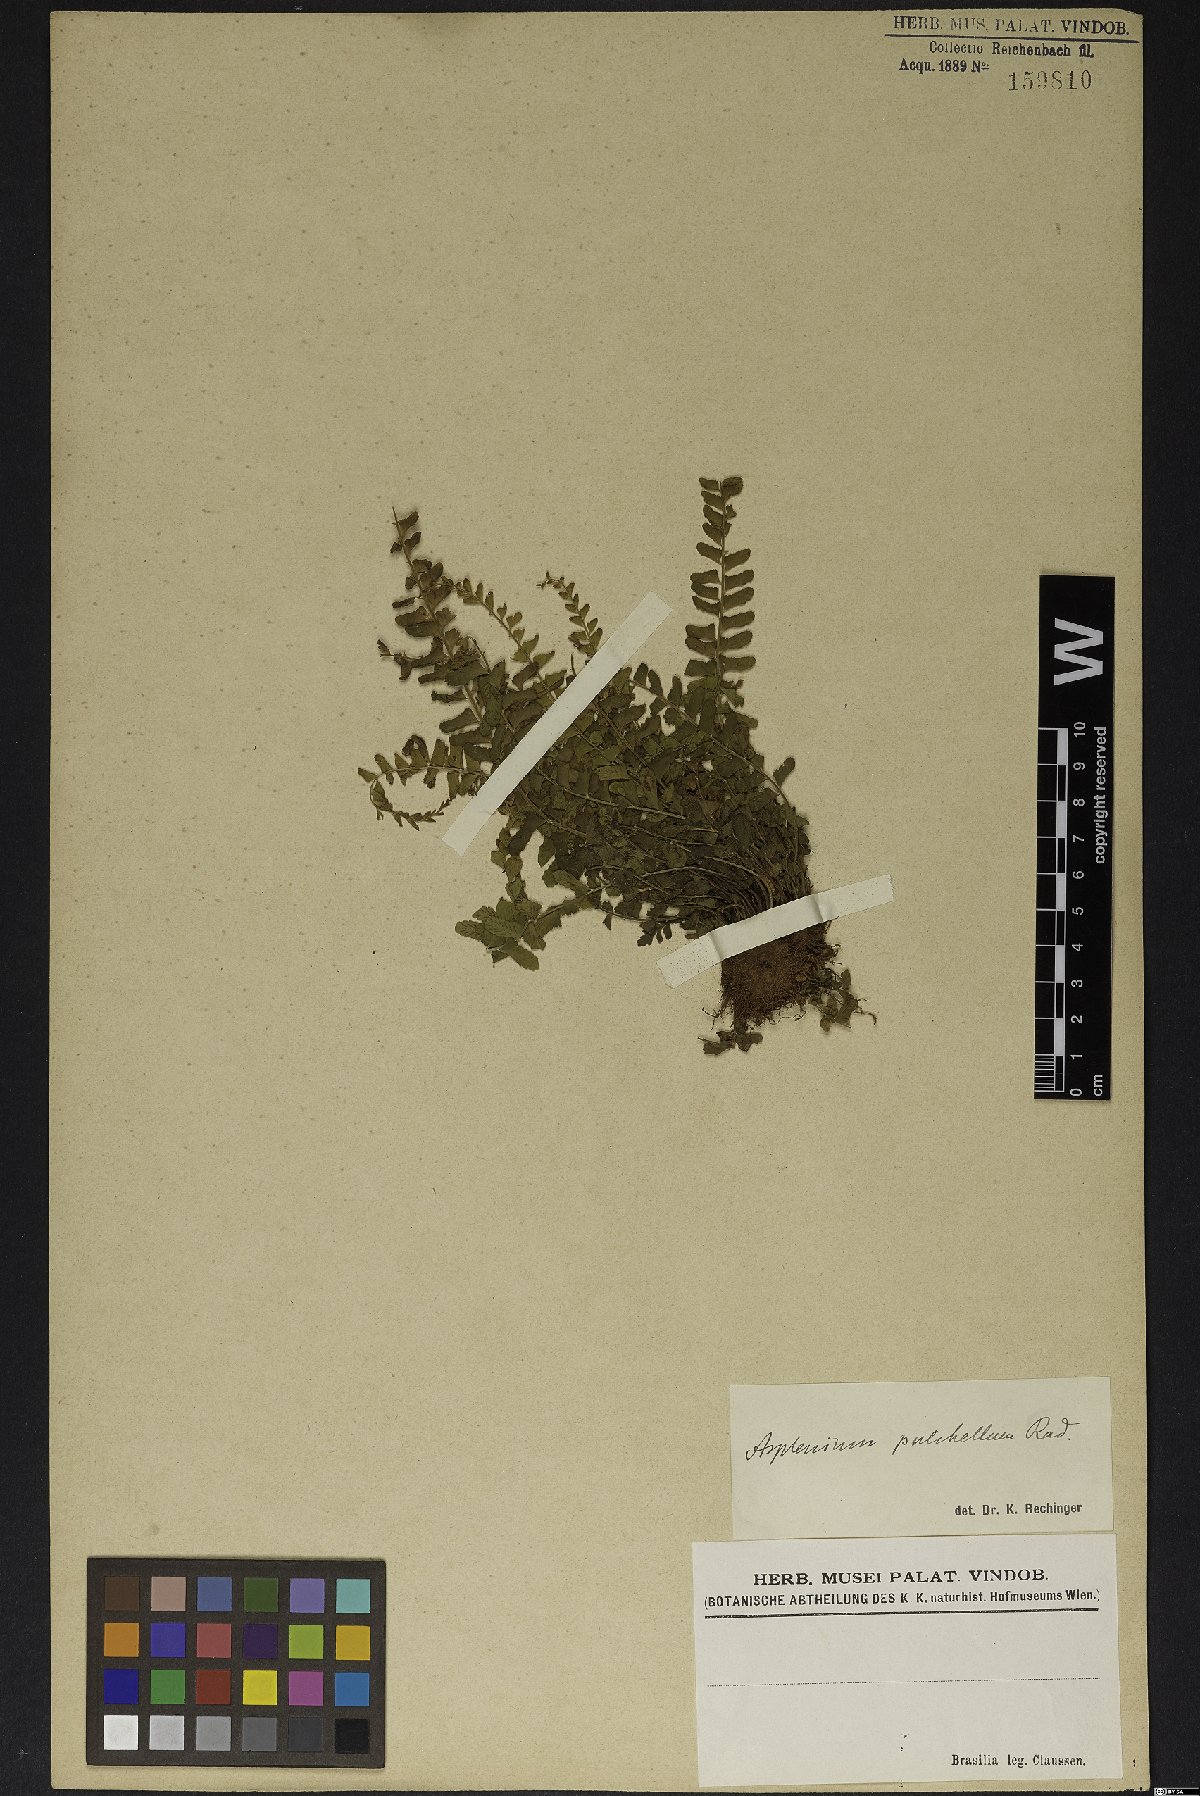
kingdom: Plantae
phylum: Tracheophyta
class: Polypodiopsida
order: Polypodiales
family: Aspleniaceae
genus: Asplenium
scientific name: Asplenium pulchellum
